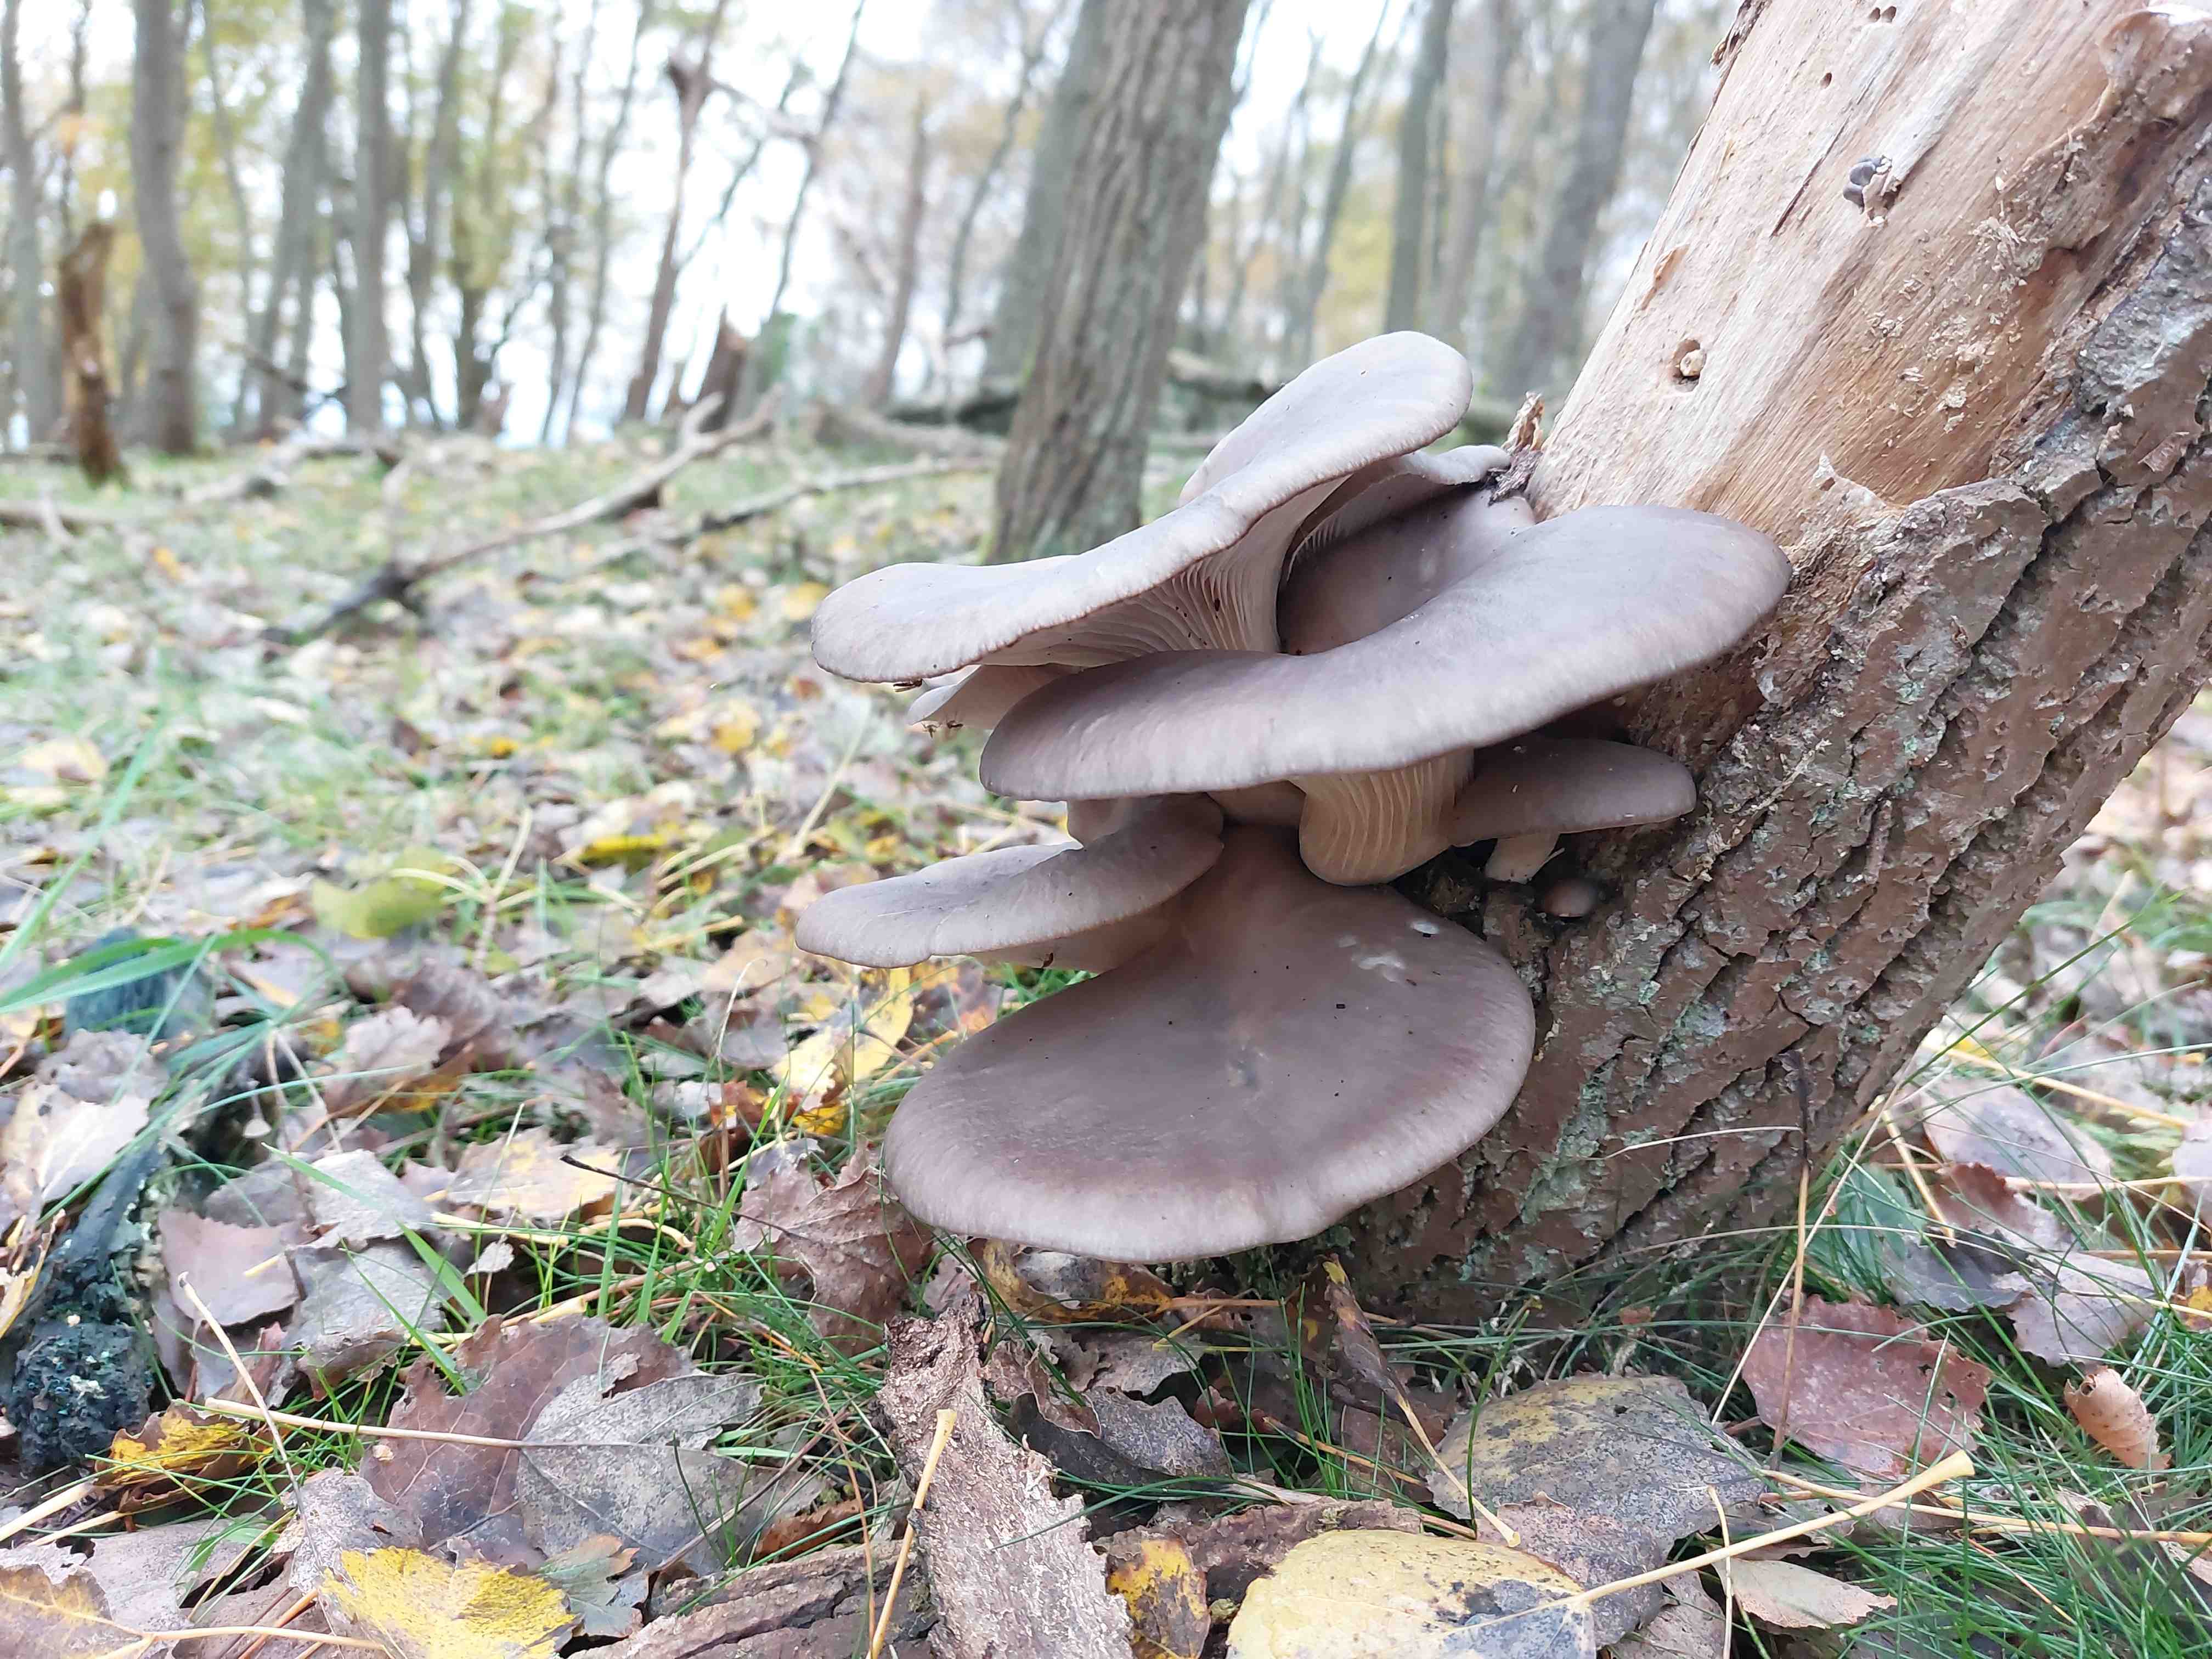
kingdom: Fungi
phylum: Basidiomycota
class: Agaricomycetes
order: Agaricales
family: Pleurotaceae
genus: Pleurotus
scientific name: Pleurotus ostreatus
